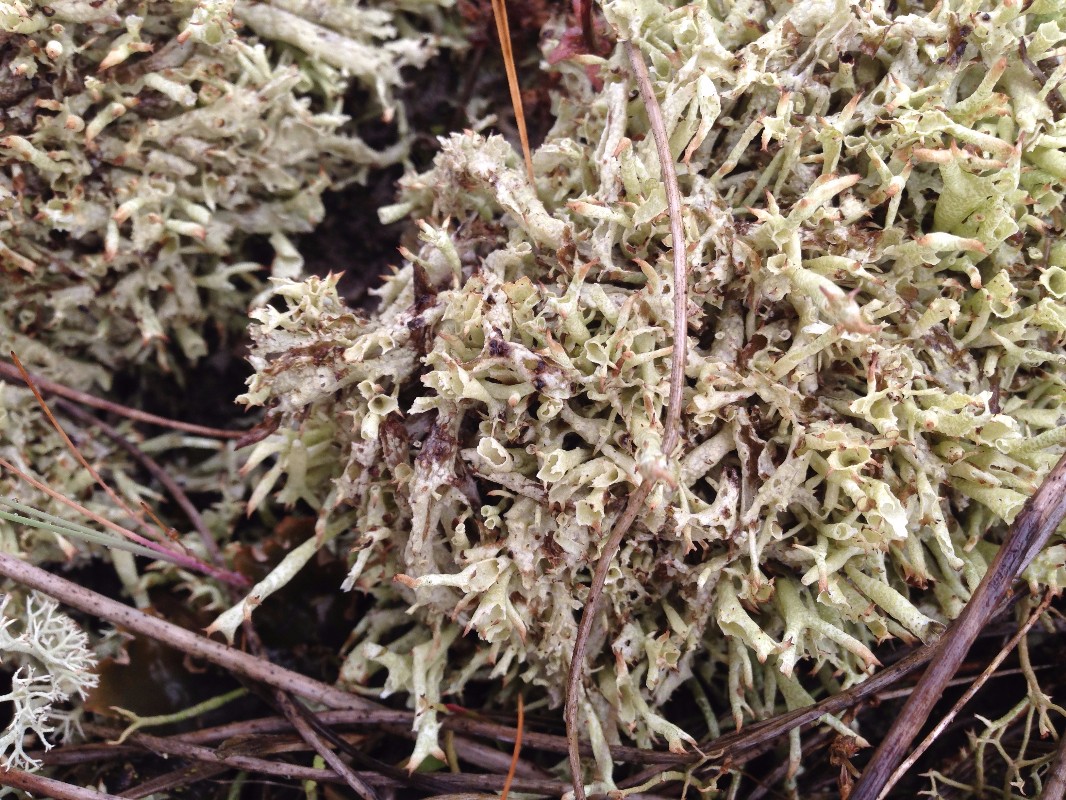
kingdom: Fungi
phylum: Ascomycota
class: Lecanoromycetes
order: Lecanorales
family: Cladoniaceae
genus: Cladonia
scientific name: Cladonia uncialis
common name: pigget bægerlav
